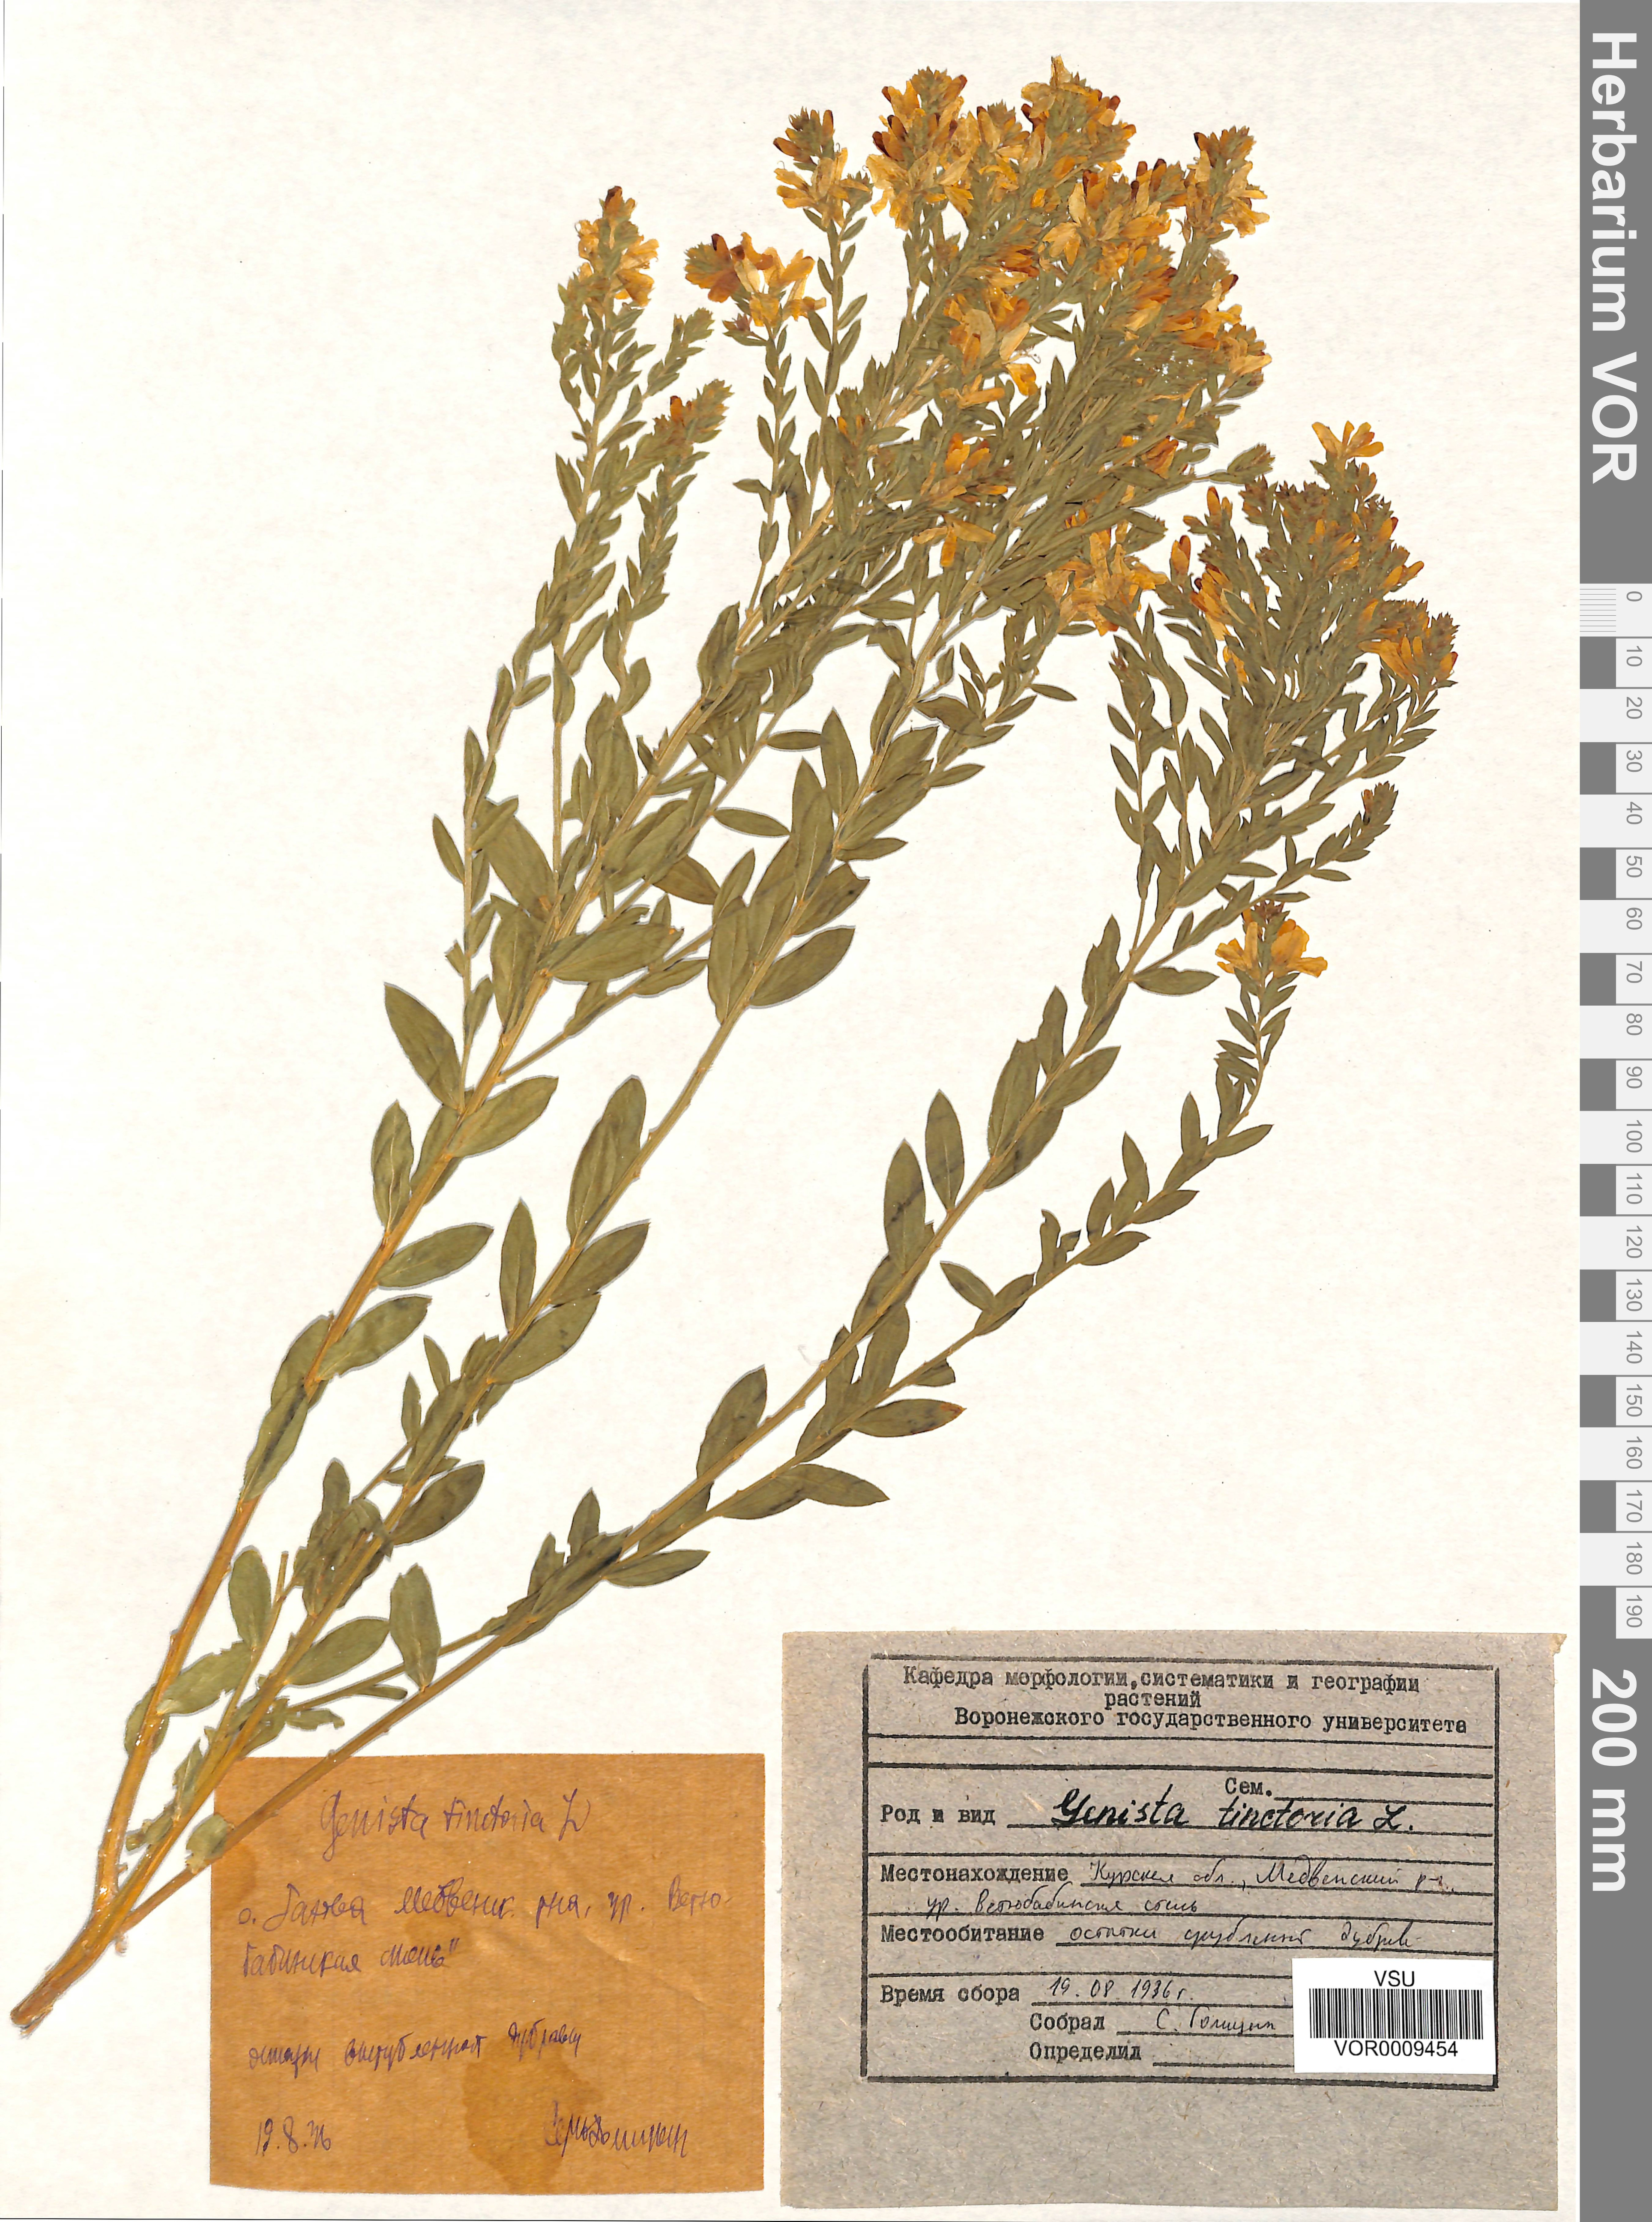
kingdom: Plantae
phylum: Tracheophyta
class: Magnoliopsida
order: Fabales
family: Fabaceae
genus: Genista
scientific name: Genista tinctoria
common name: Dyer's greenweed
